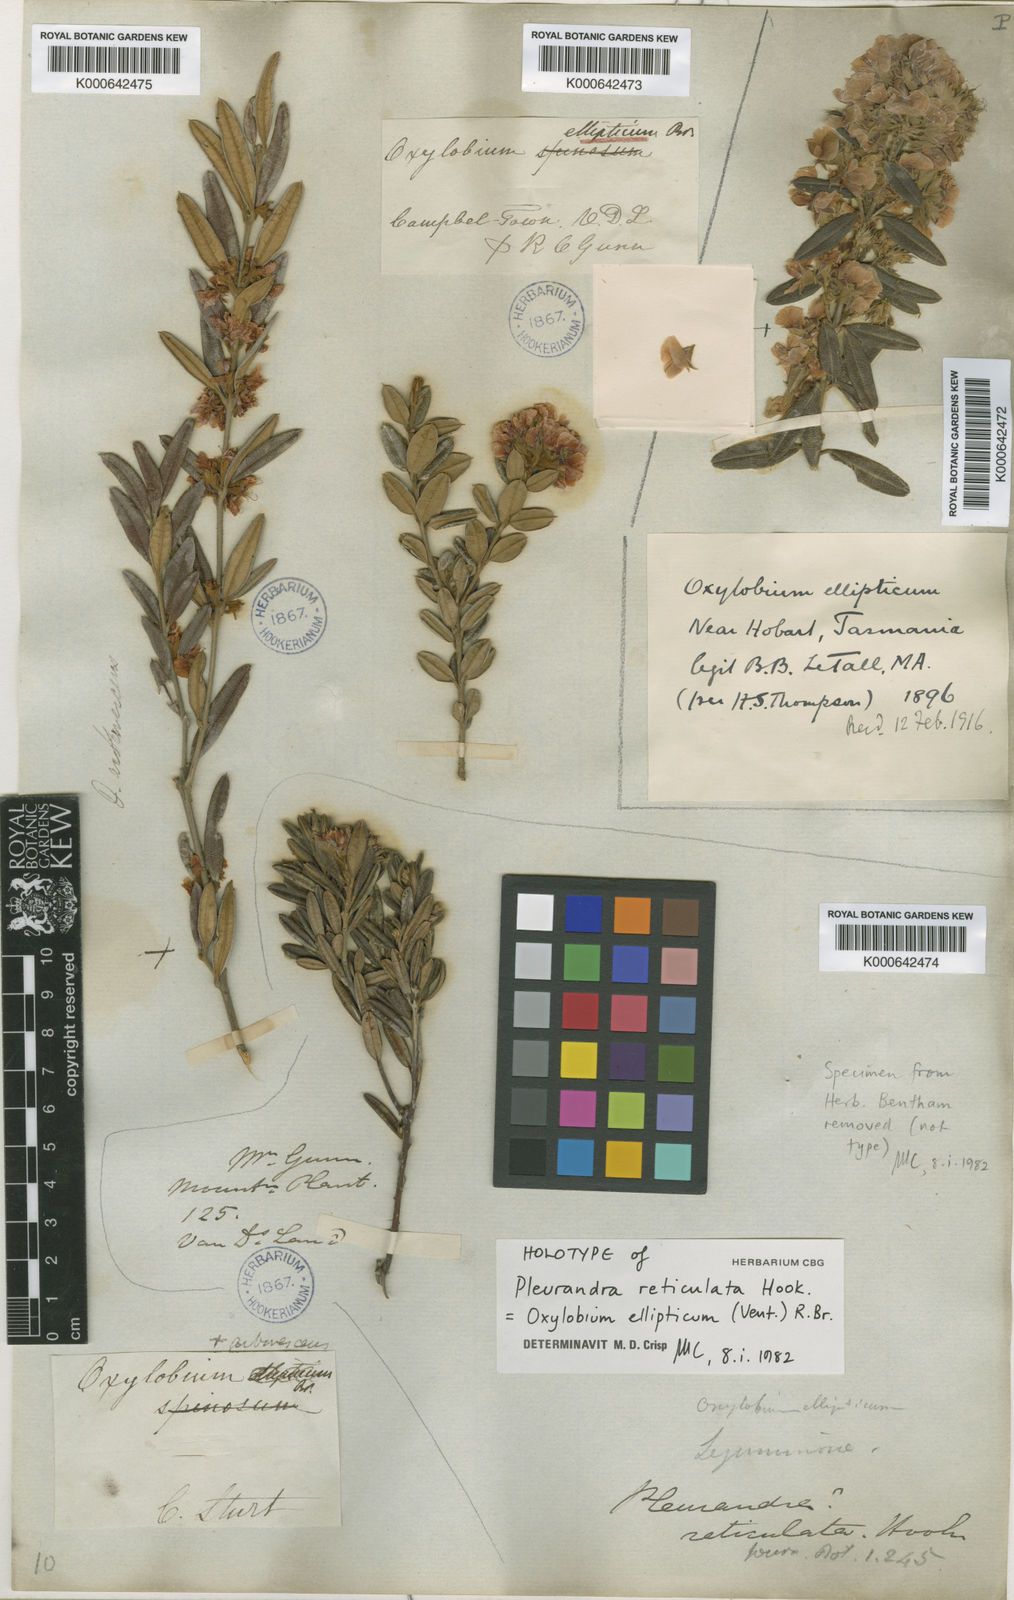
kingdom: Plantae
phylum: Tracheophyta
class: Magnoliopsida
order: Fabales
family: Fabaceae
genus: Oxylobium
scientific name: Oxylobium ellipticum
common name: Golden shaggy-pea
